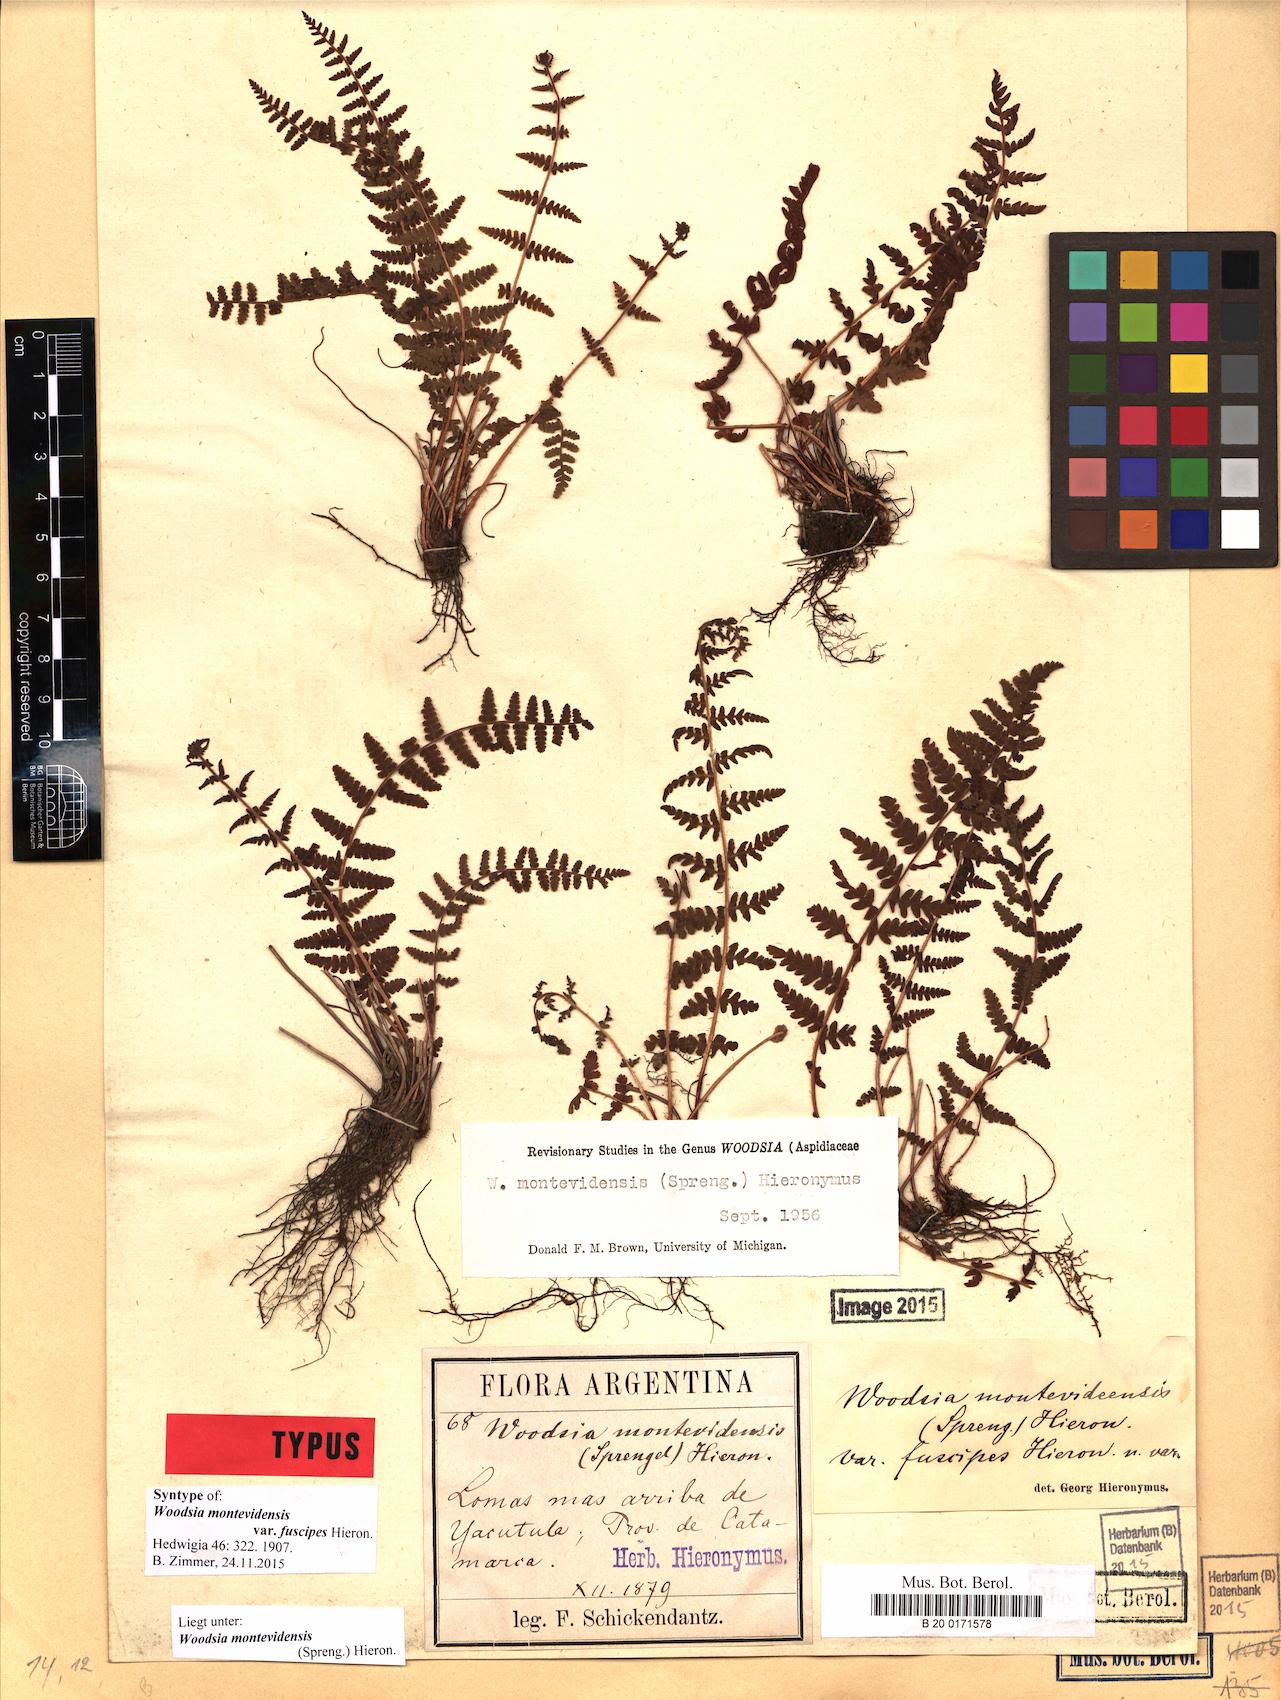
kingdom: Plantae
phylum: Tracheophyta
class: Polypodiopsida
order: Polypodiales
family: Woodsiaceae
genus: Physematium
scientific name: Physematium montevidense
